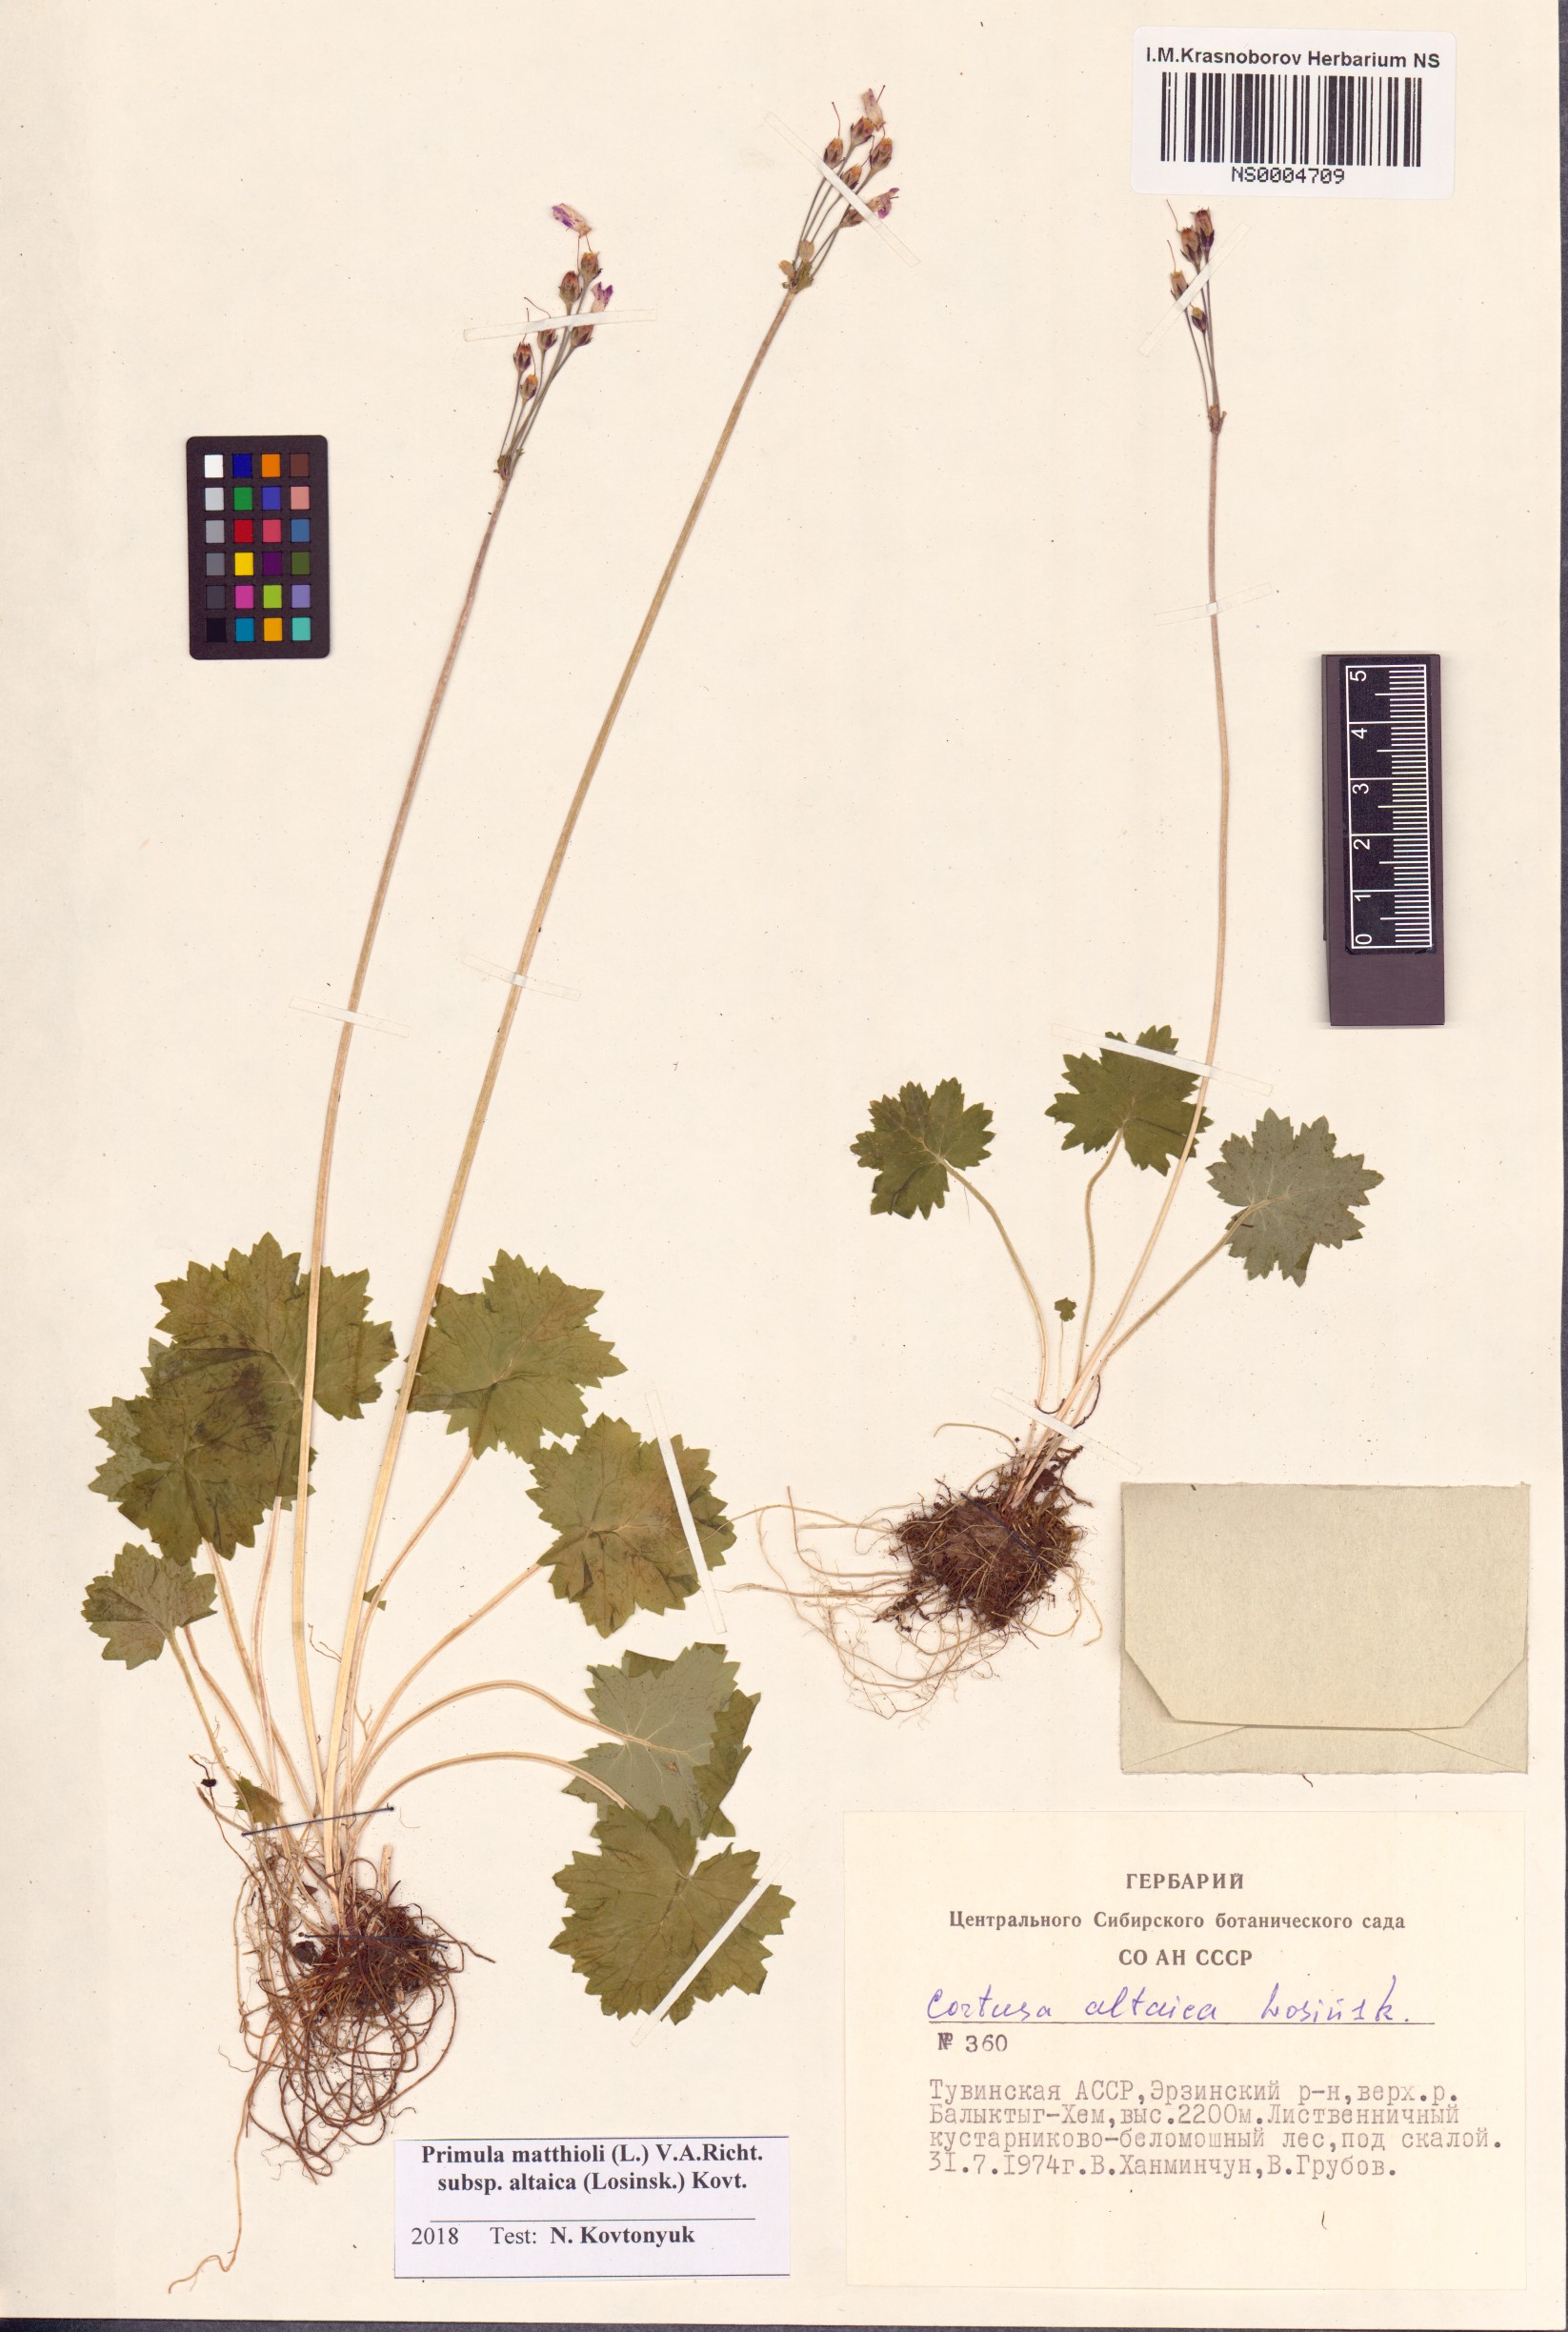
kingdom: Plantae
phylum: Tracheophyta
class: Magnoliopsida
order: Ericales
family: Primulaceae
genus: Primula
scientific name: Primula matthioli
